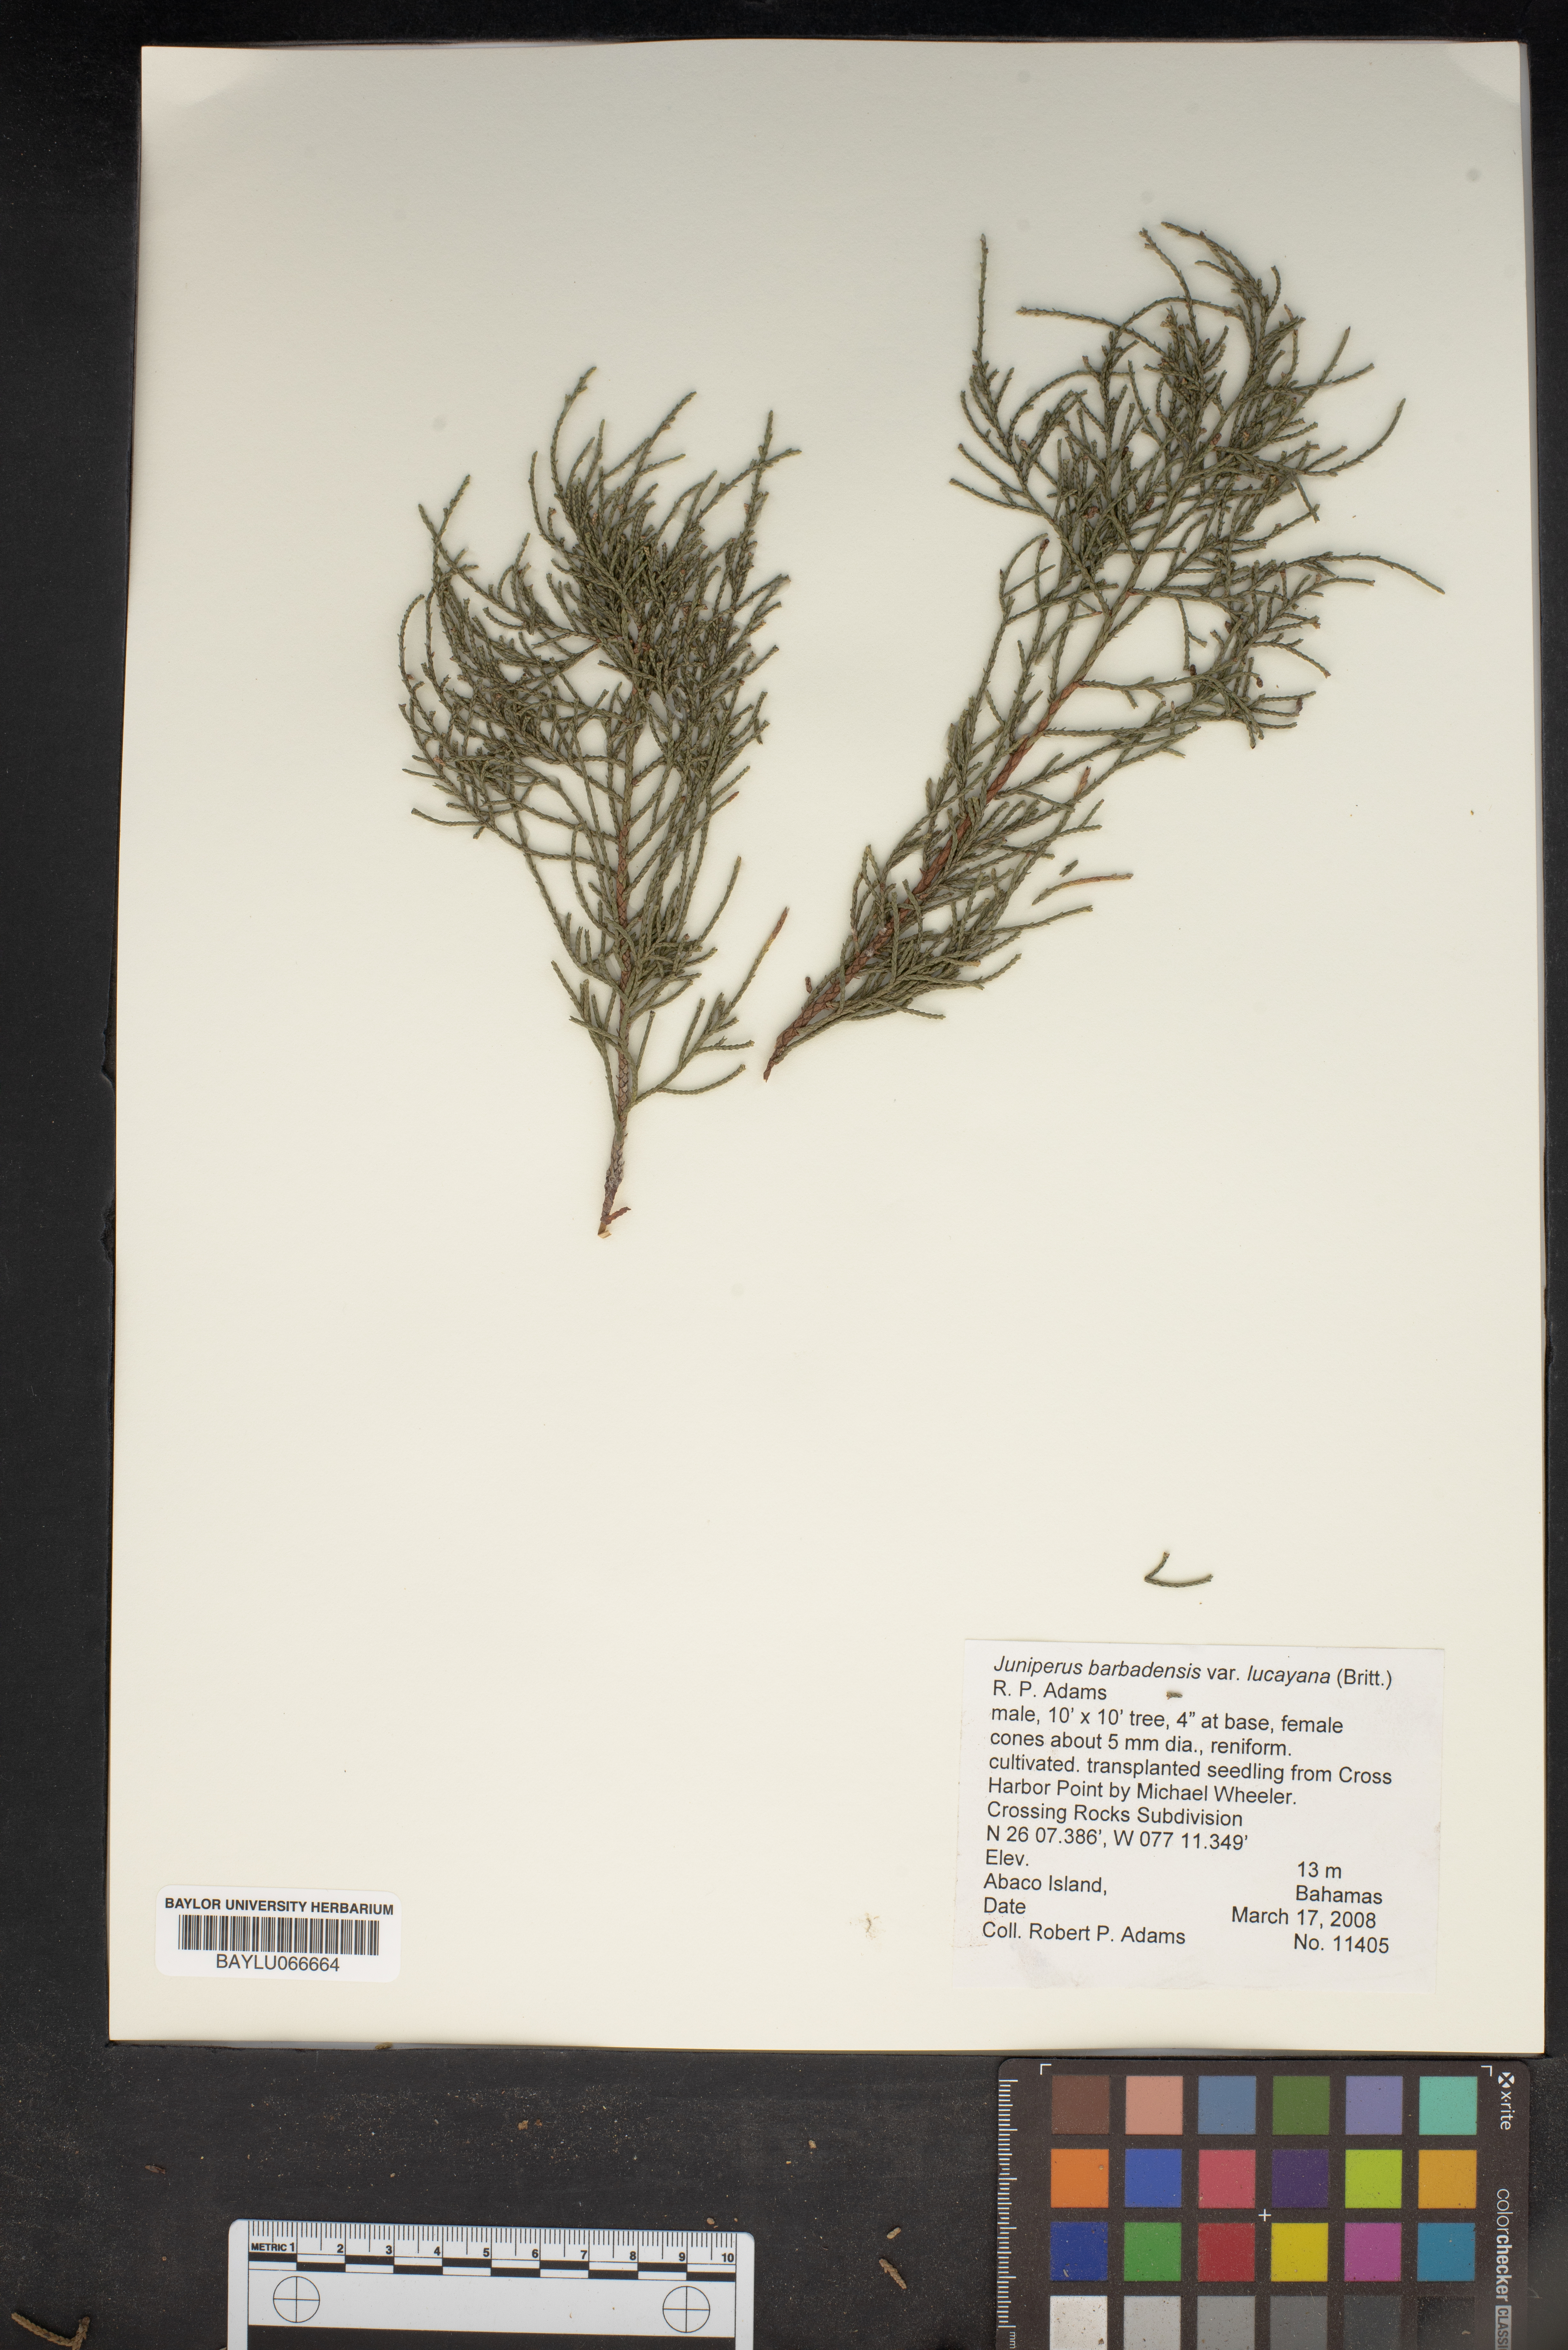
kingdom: Plantae
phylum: Tracheophyta
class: Pinopsida
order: Pinales
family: Cupressaceae
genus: Juniperus
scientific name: Juniperus barbadensis
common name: West indies juniper
